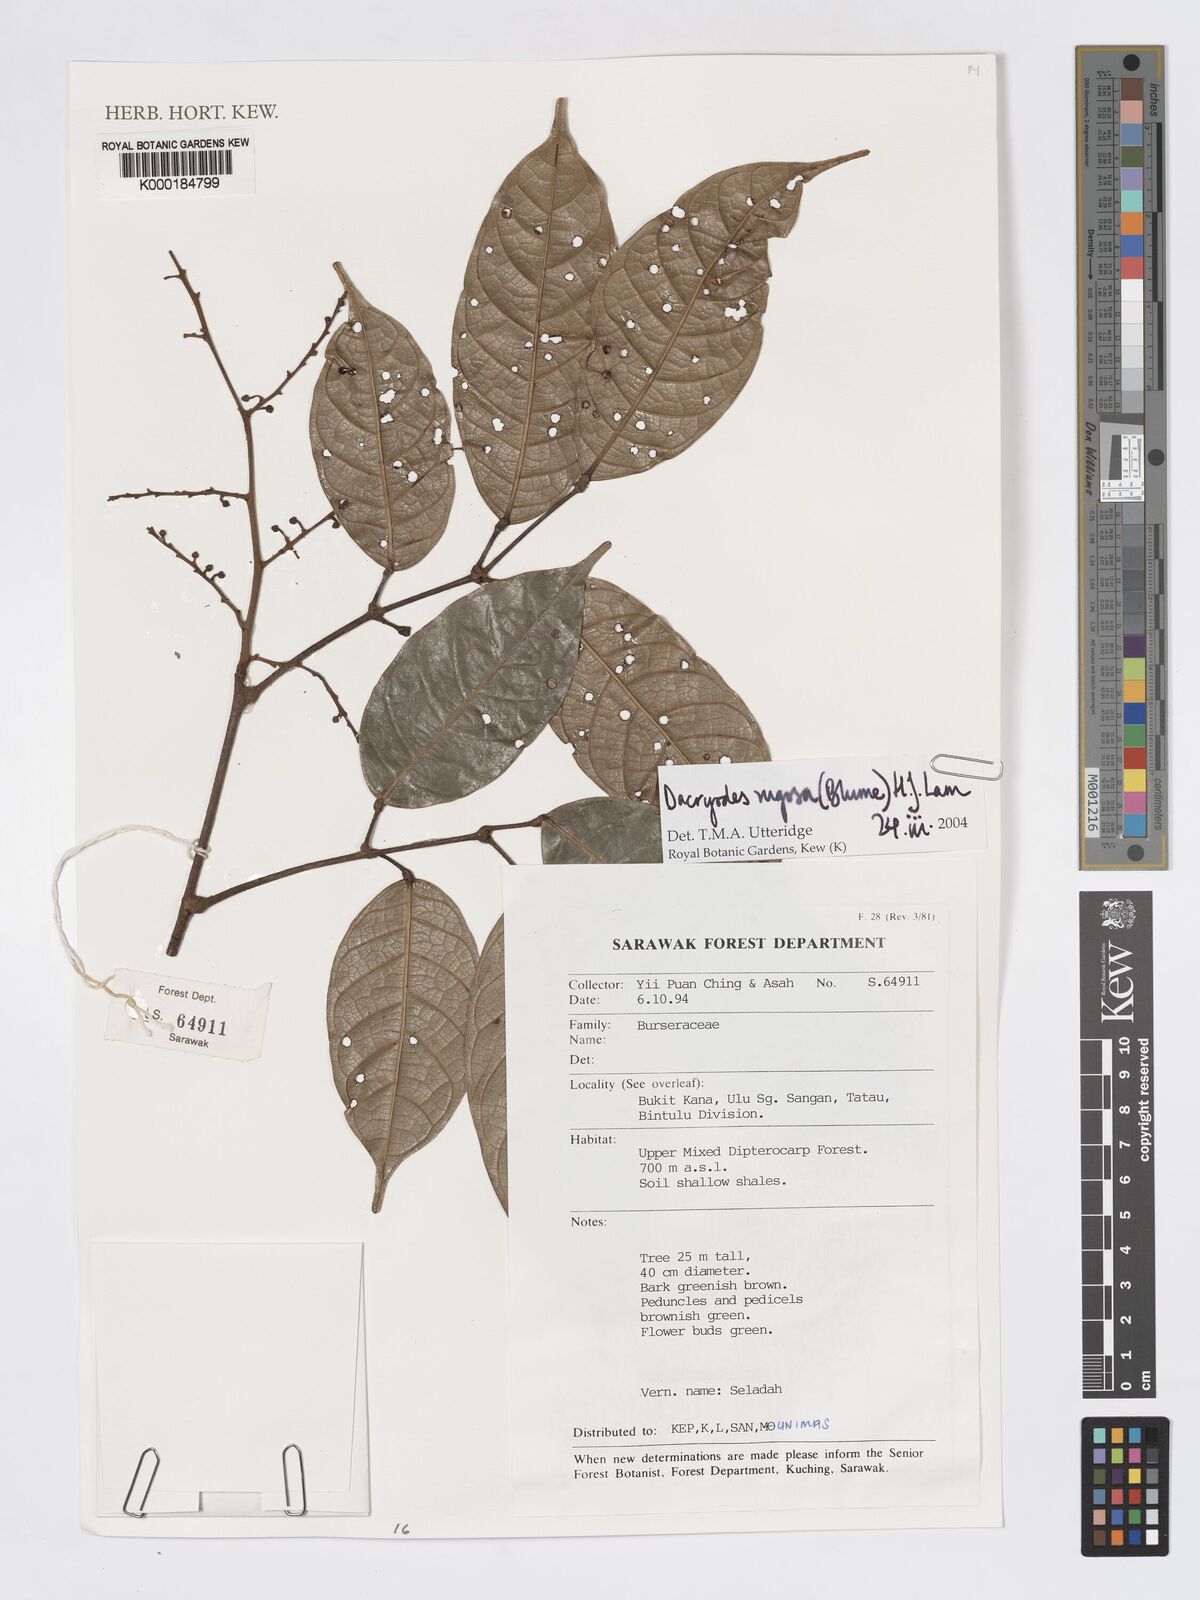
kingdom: Plantae
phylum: Tracheophyta
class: Magnoliopsida
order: Sapindales
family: Burseraceae
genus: Dacryodes
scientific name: Dacryodes rugosa
